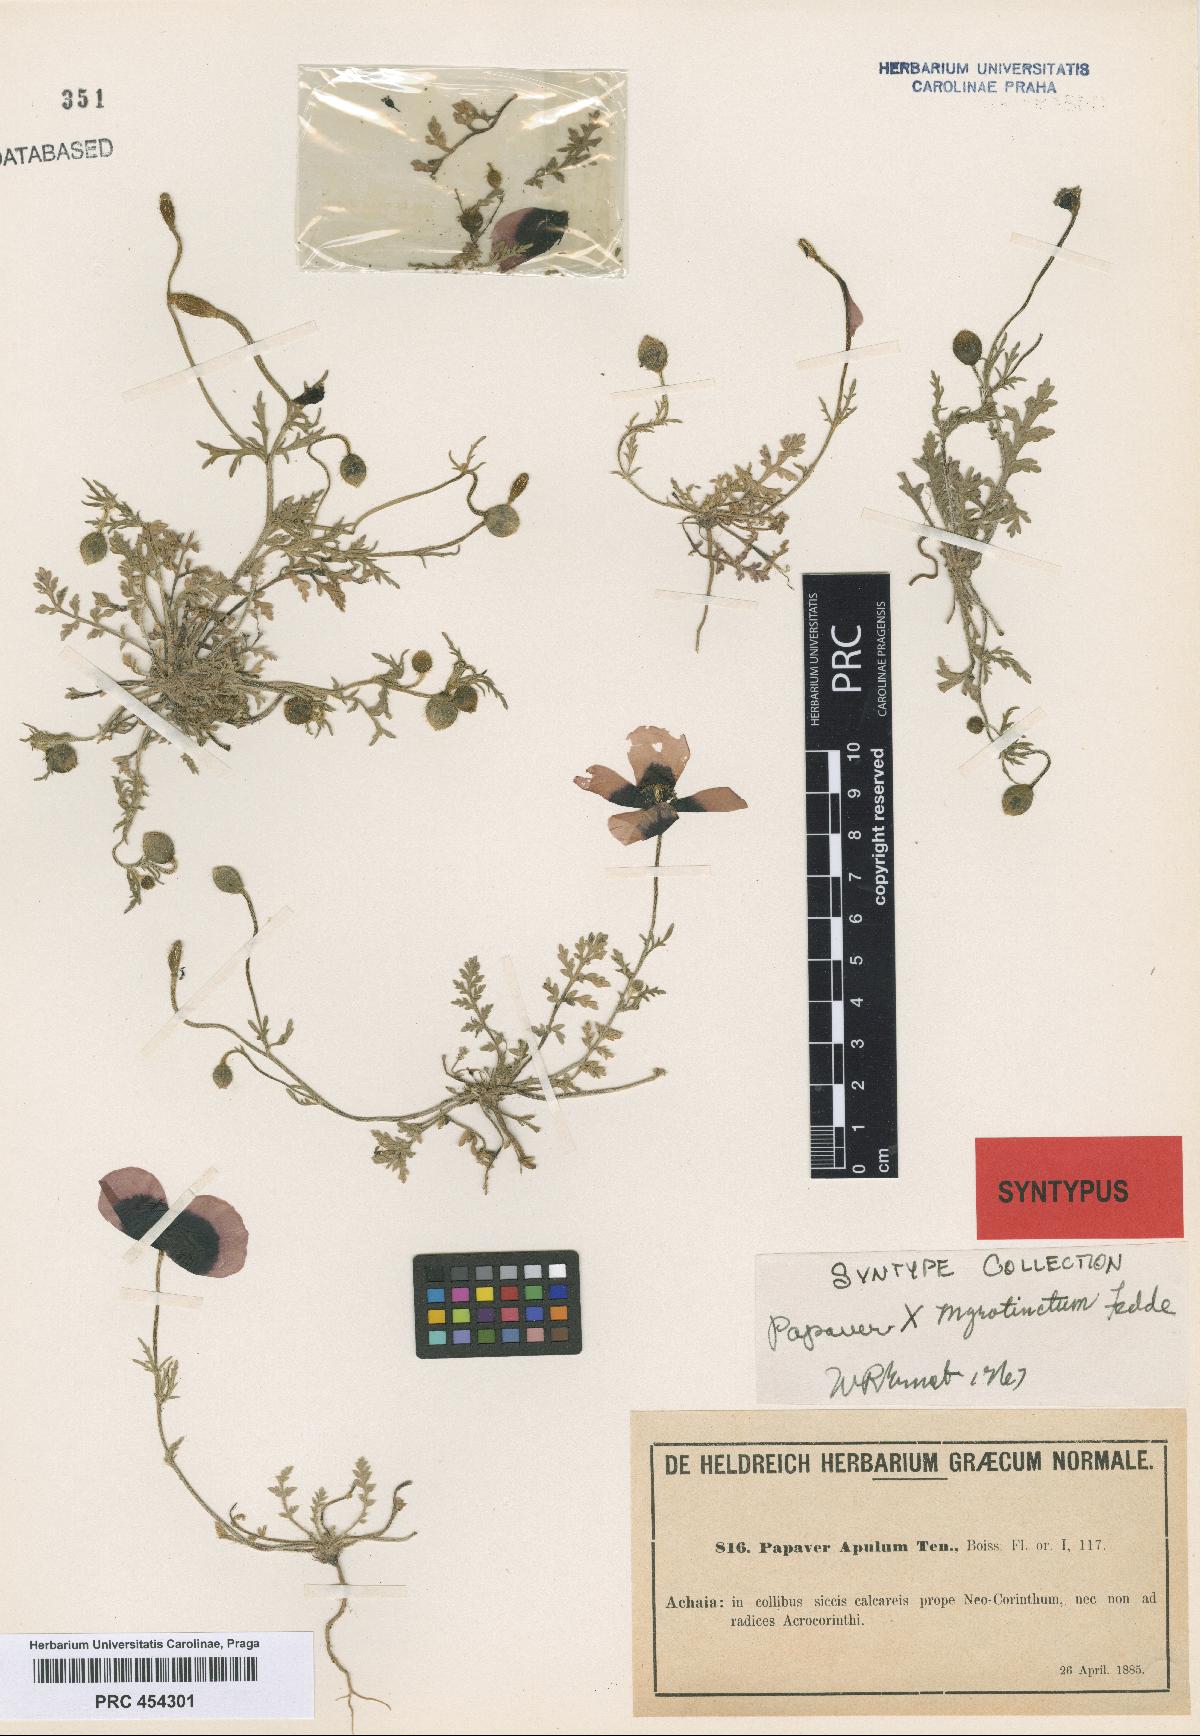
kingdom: Plantae
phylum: Tracheophyta
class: Magnoliopsida
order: Ranunculales
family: Papaveraceae
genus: Roemeria
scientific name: Roemeria apula
